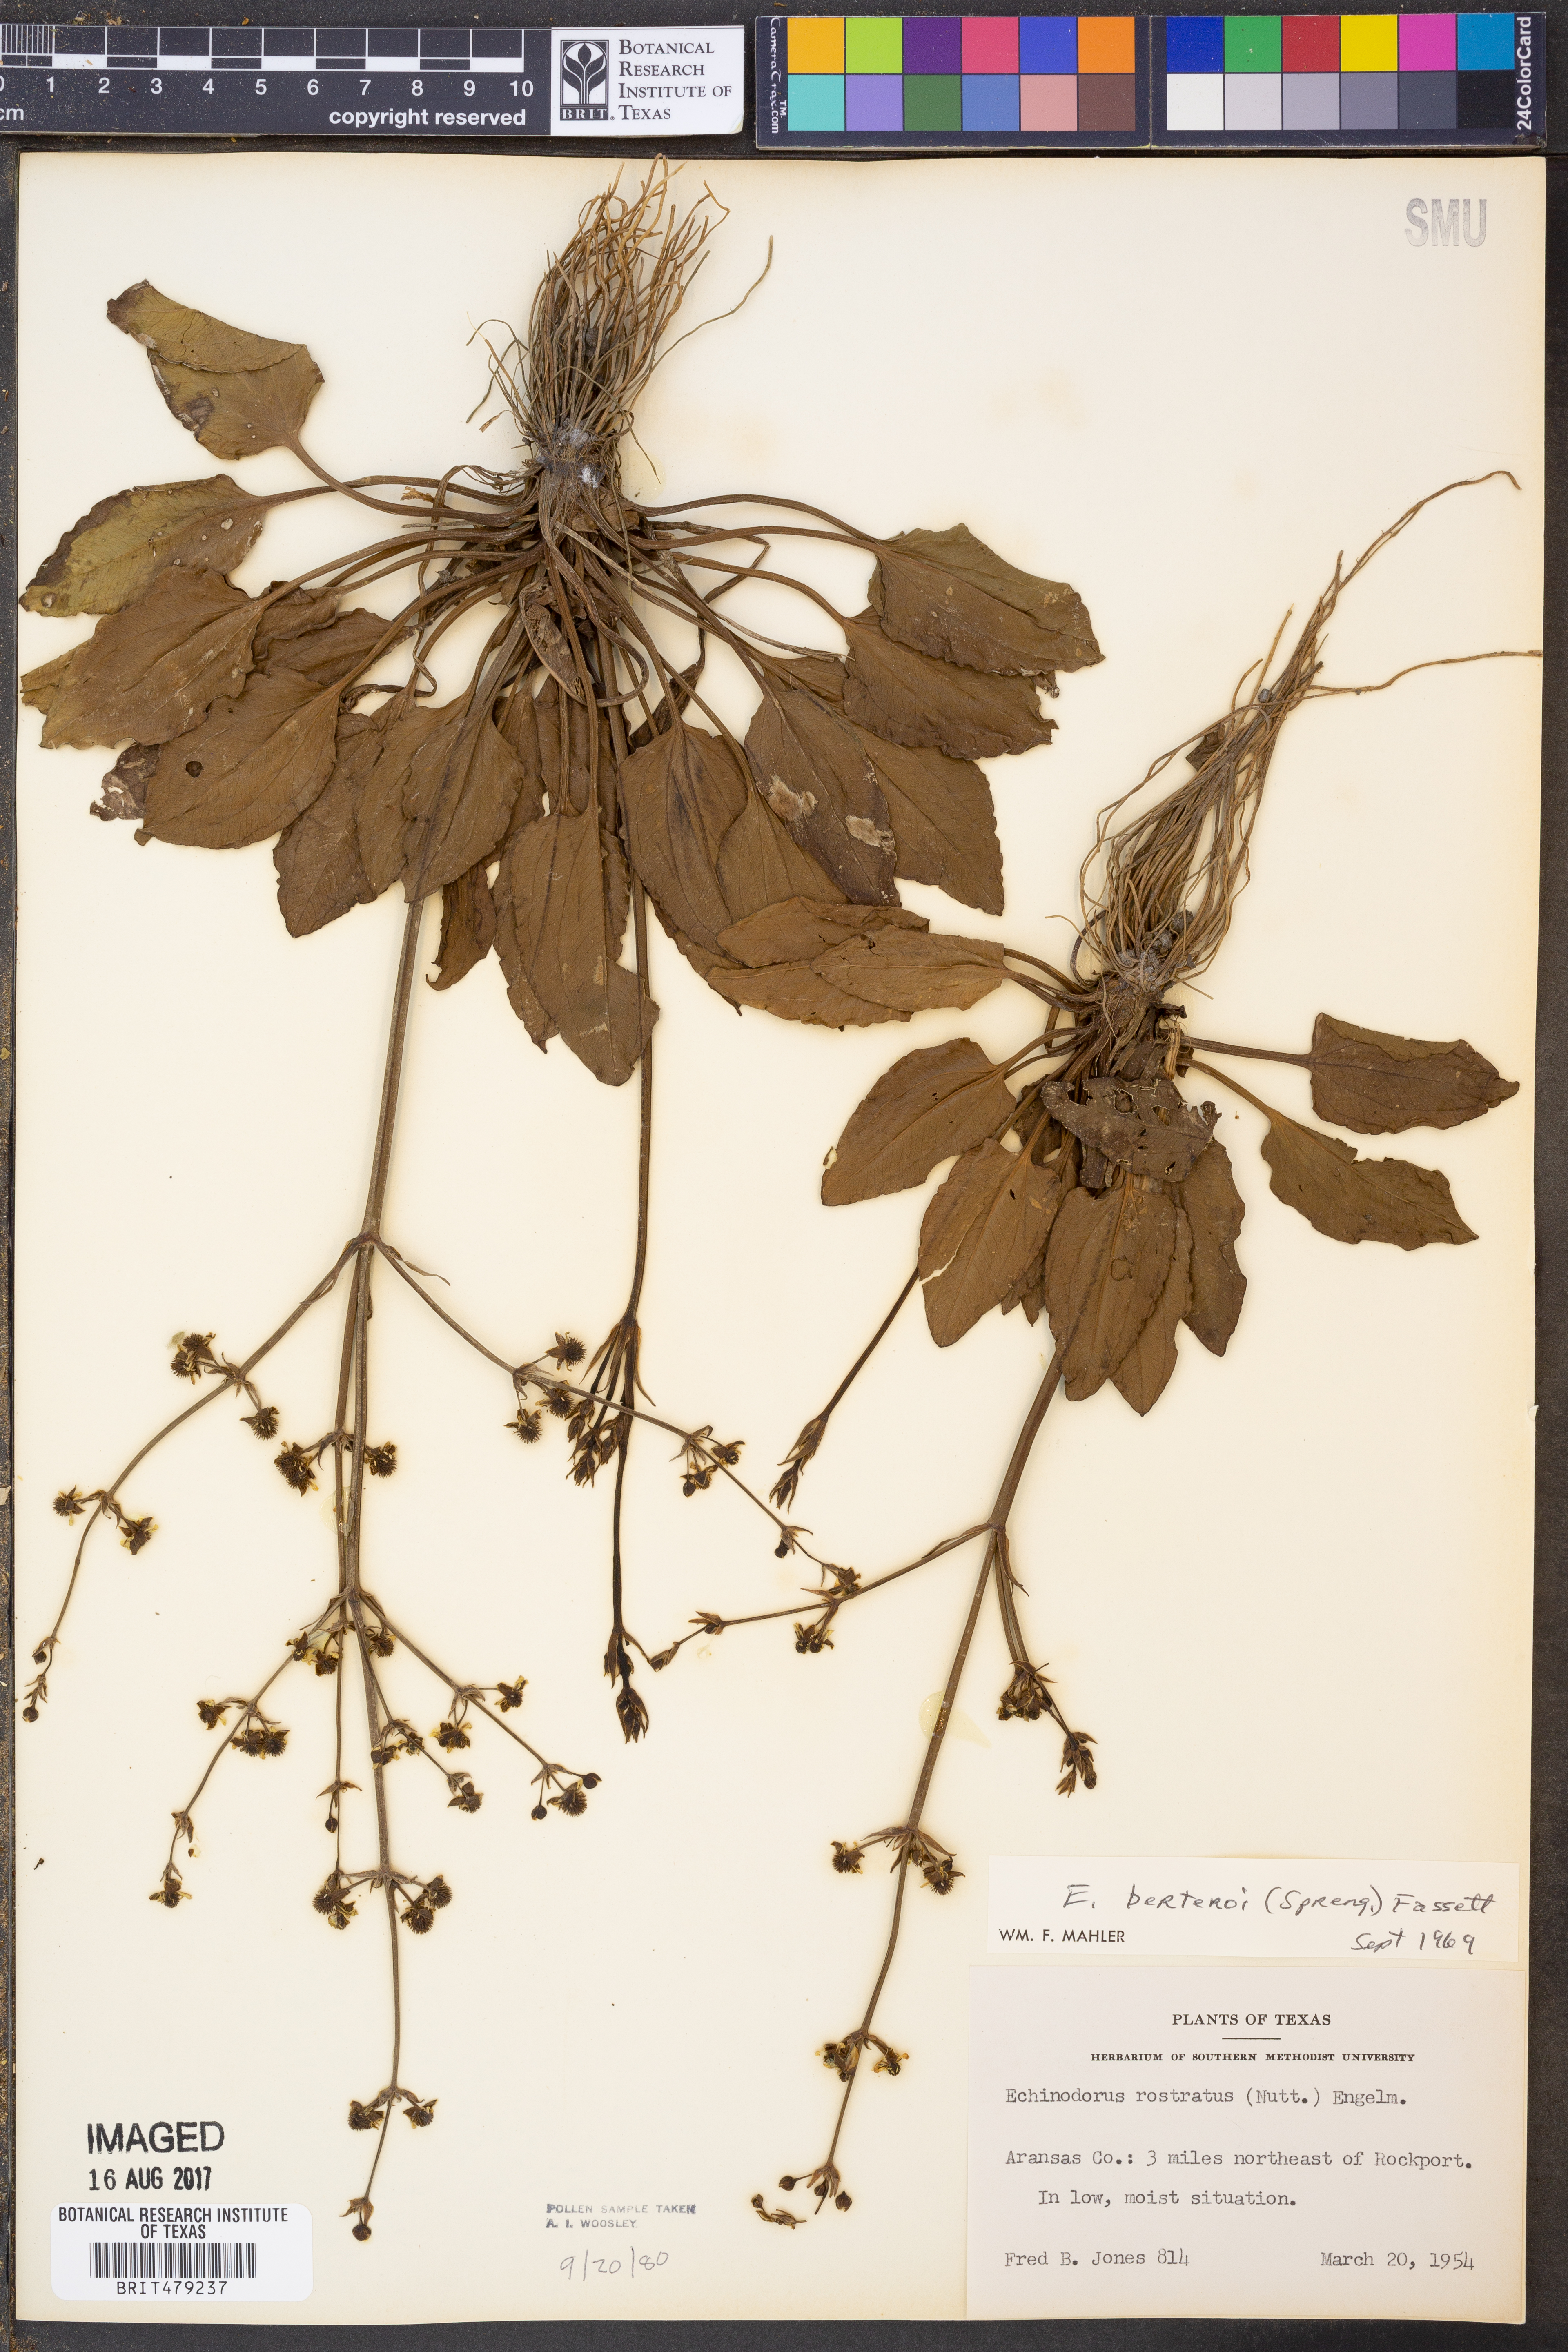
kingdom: Plantae
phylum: Tracheophyta
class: Liliopsida
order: Alismatales
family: Alismataceae
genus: Echinodorus
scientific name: Echinodorus berteroi
